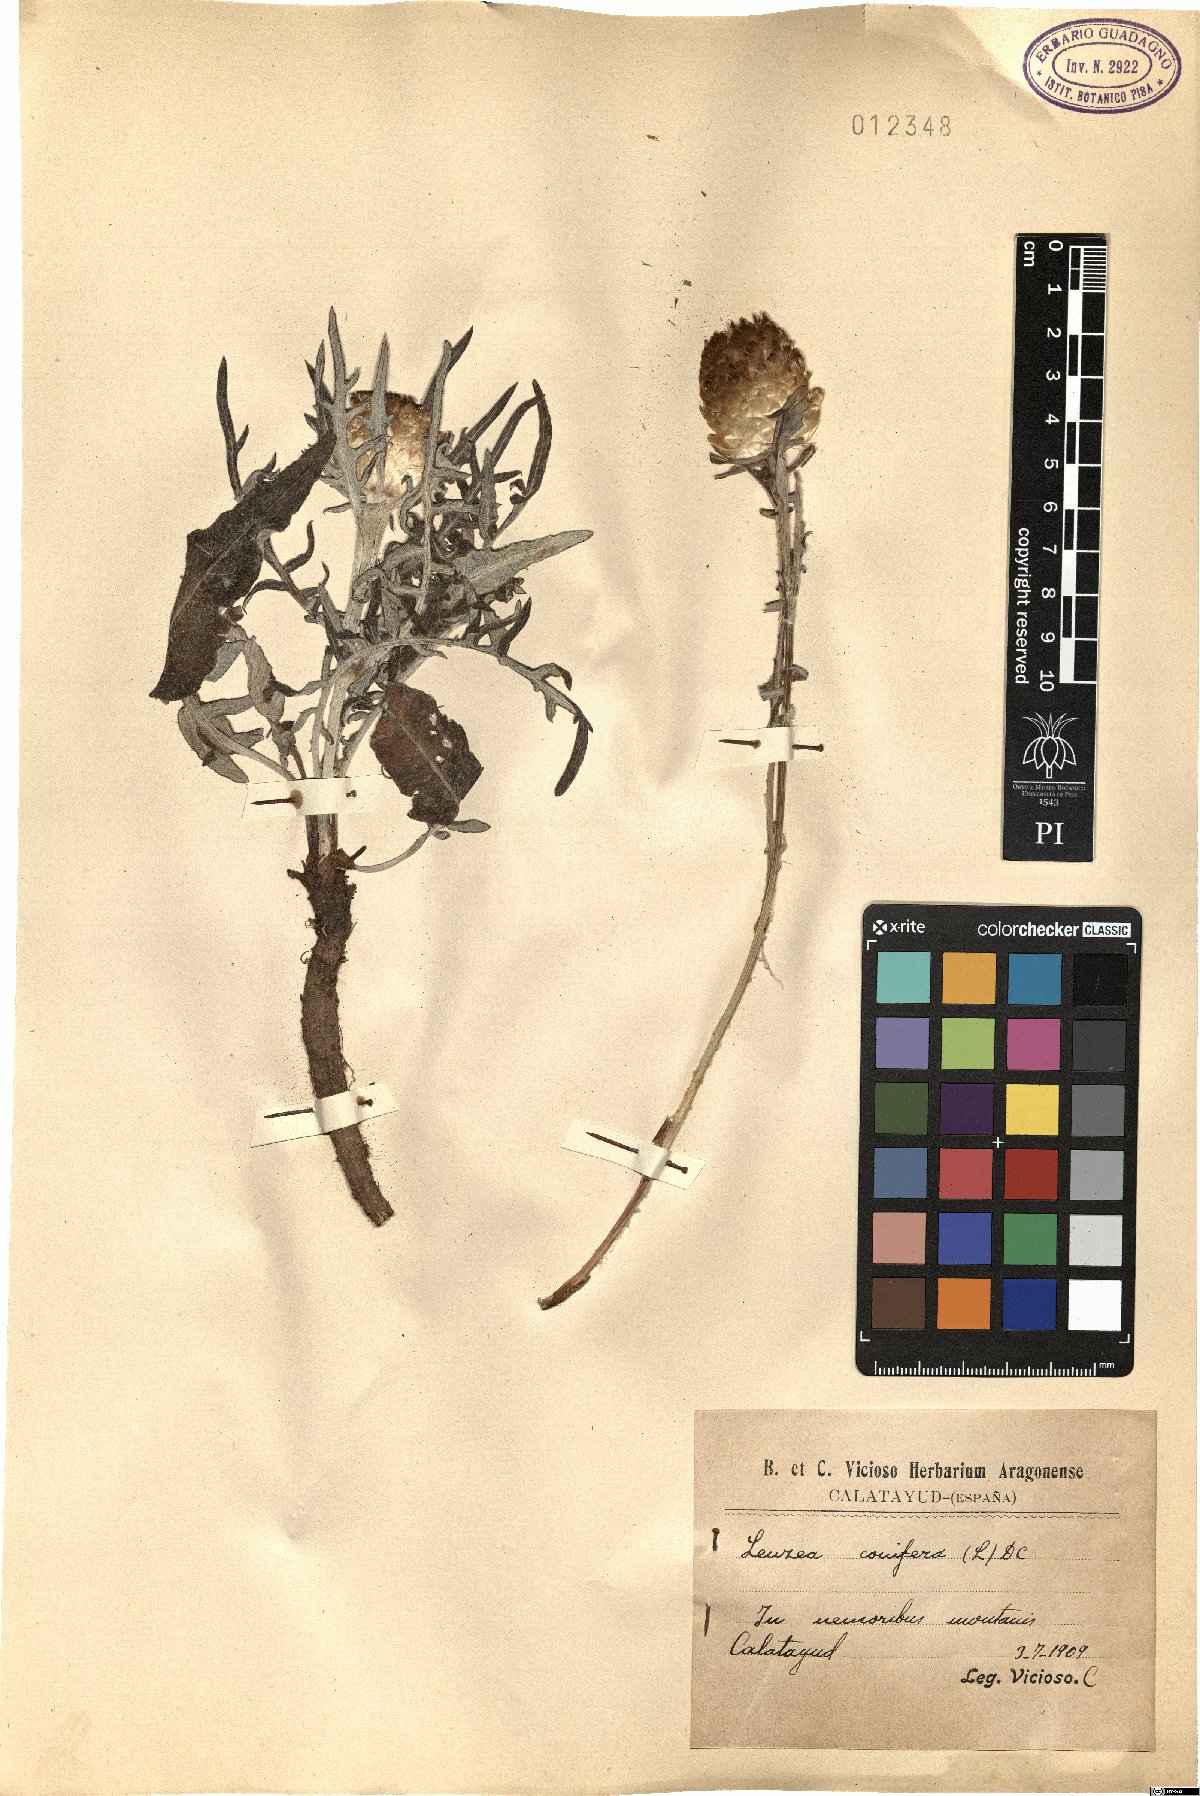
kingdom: Plantae
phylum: Tracheophyta
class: Magnoliopsida
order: Asterales
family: Asteraceae
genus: Leuzea
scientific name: Leuzea conifera
